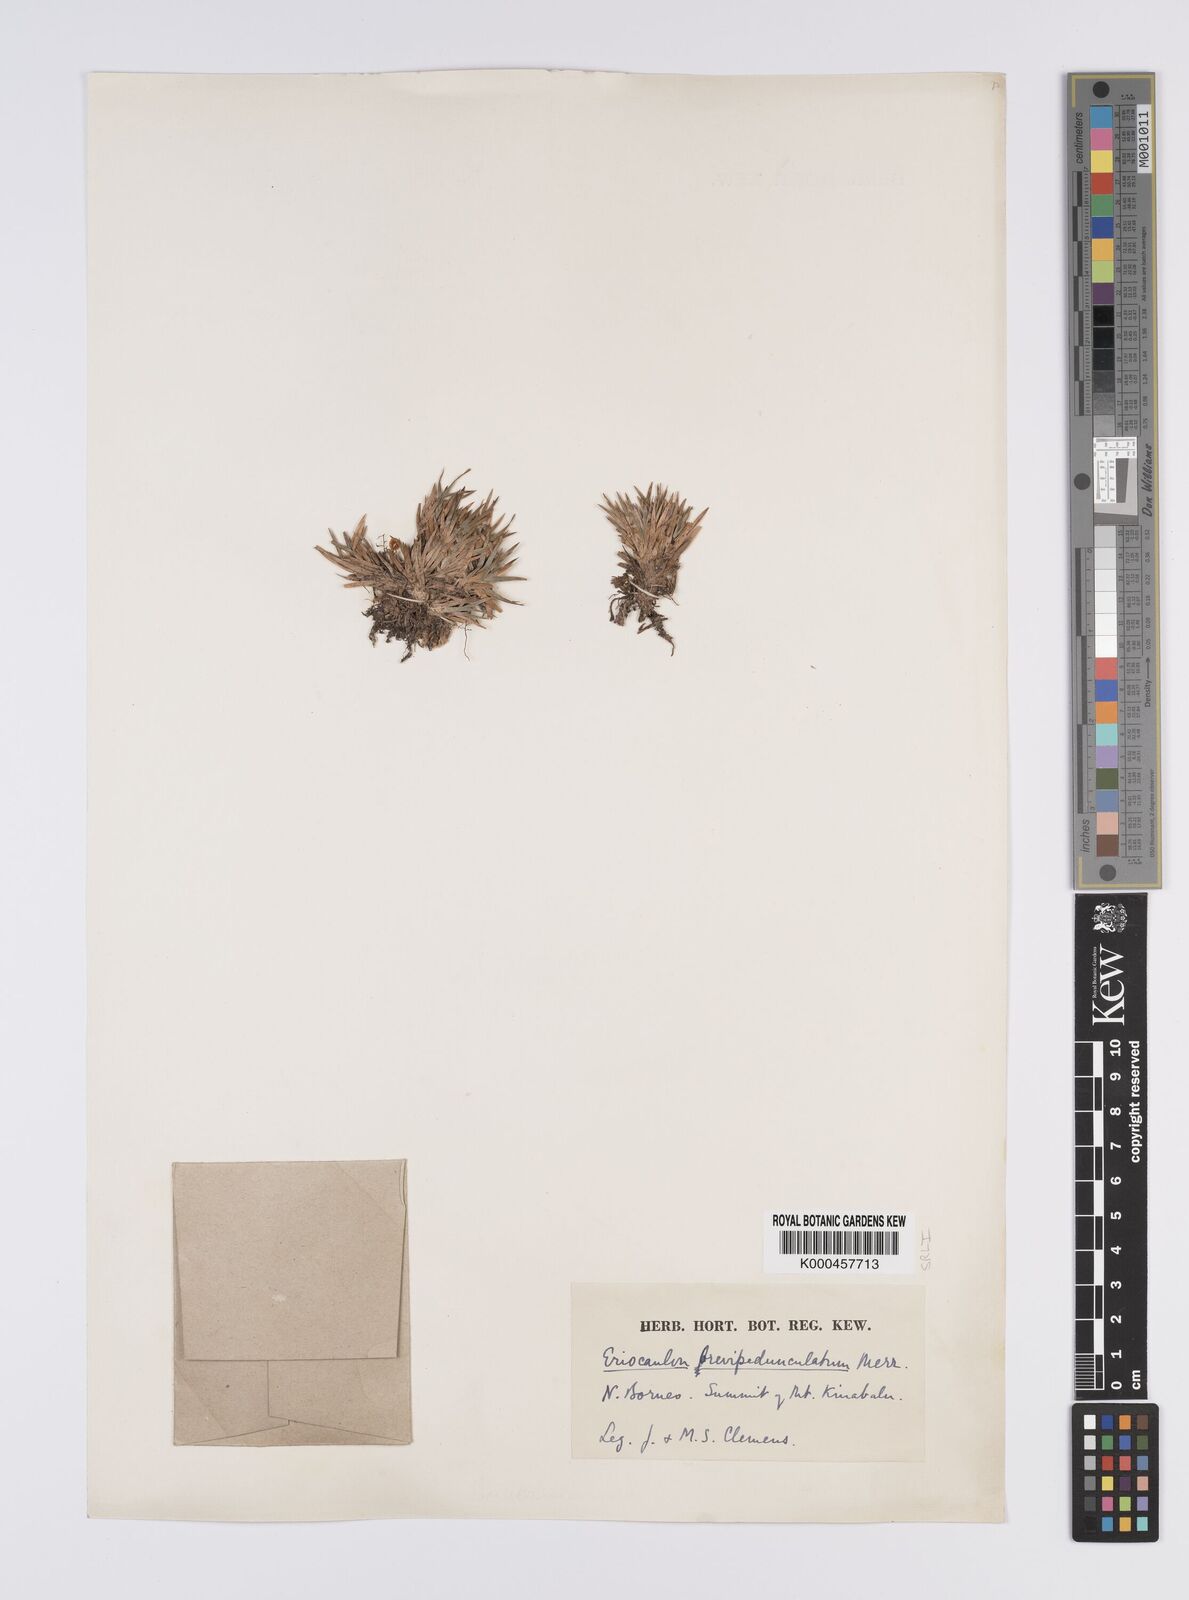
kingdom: Plantae
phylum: Tracheophyta
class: Liliopsida
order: Poales
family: Eriocaulaceae
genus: Eriocaulon
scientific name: Eriocaulon brevipedunculatum
